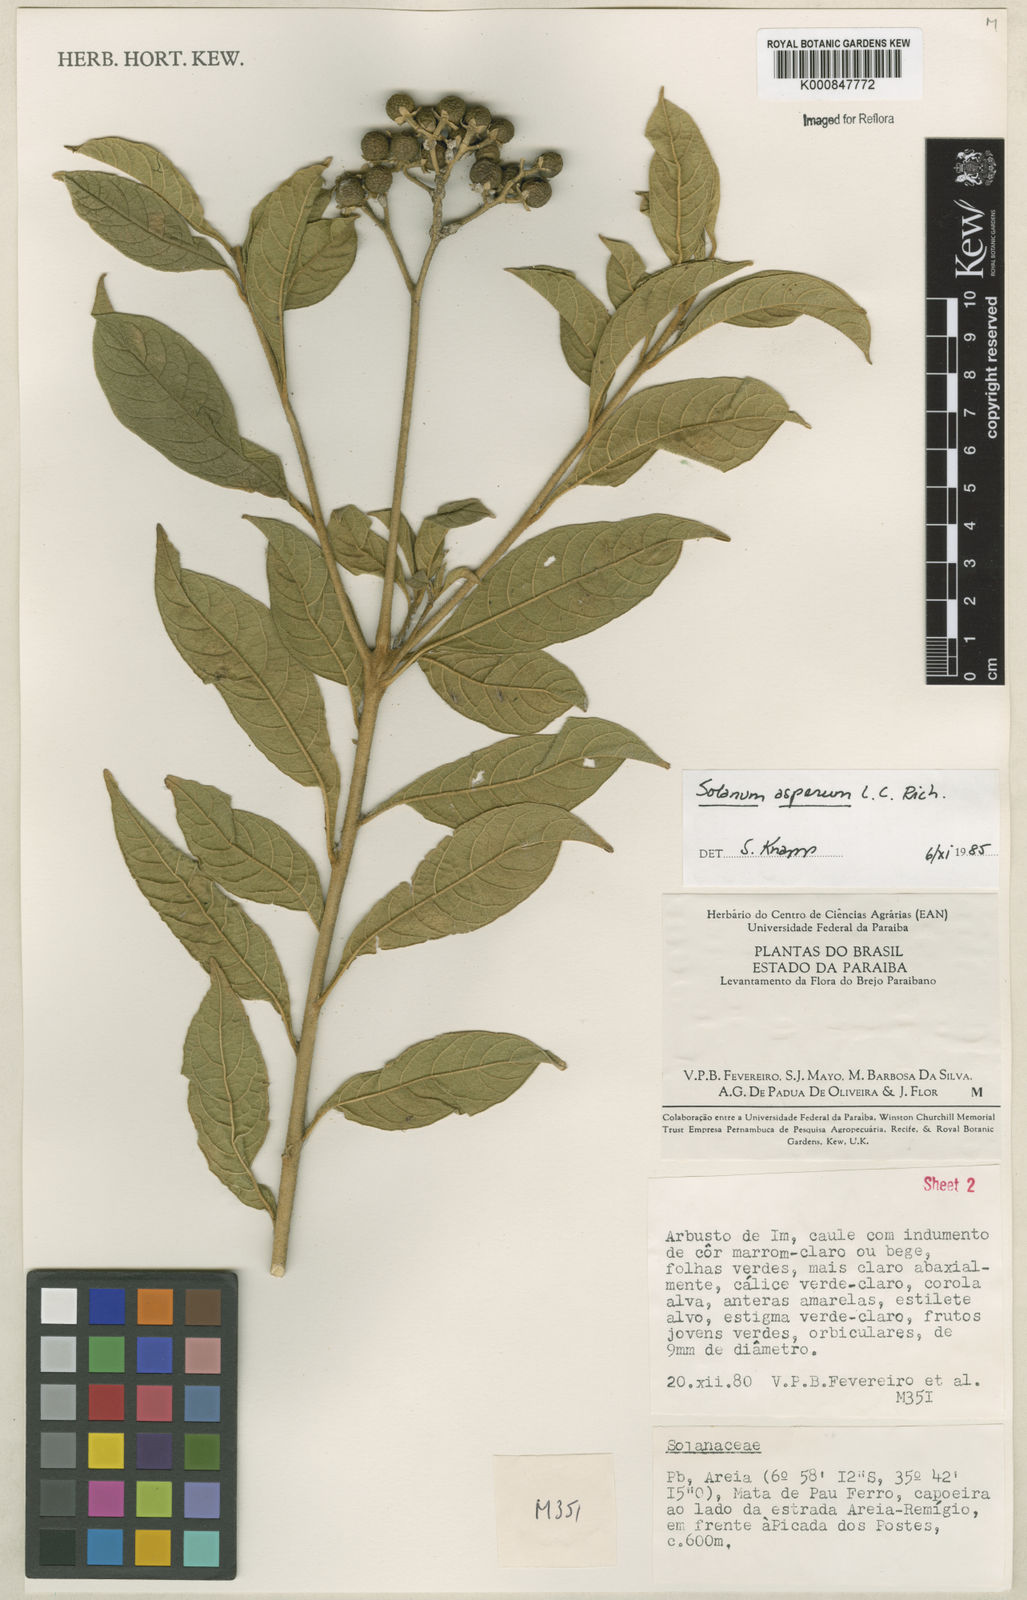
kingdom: Plantae
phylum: Tracheophyta
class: Magnoliopsida
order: Solanales
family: Solanaceae
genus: Solanum
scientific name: Solanum asperum
